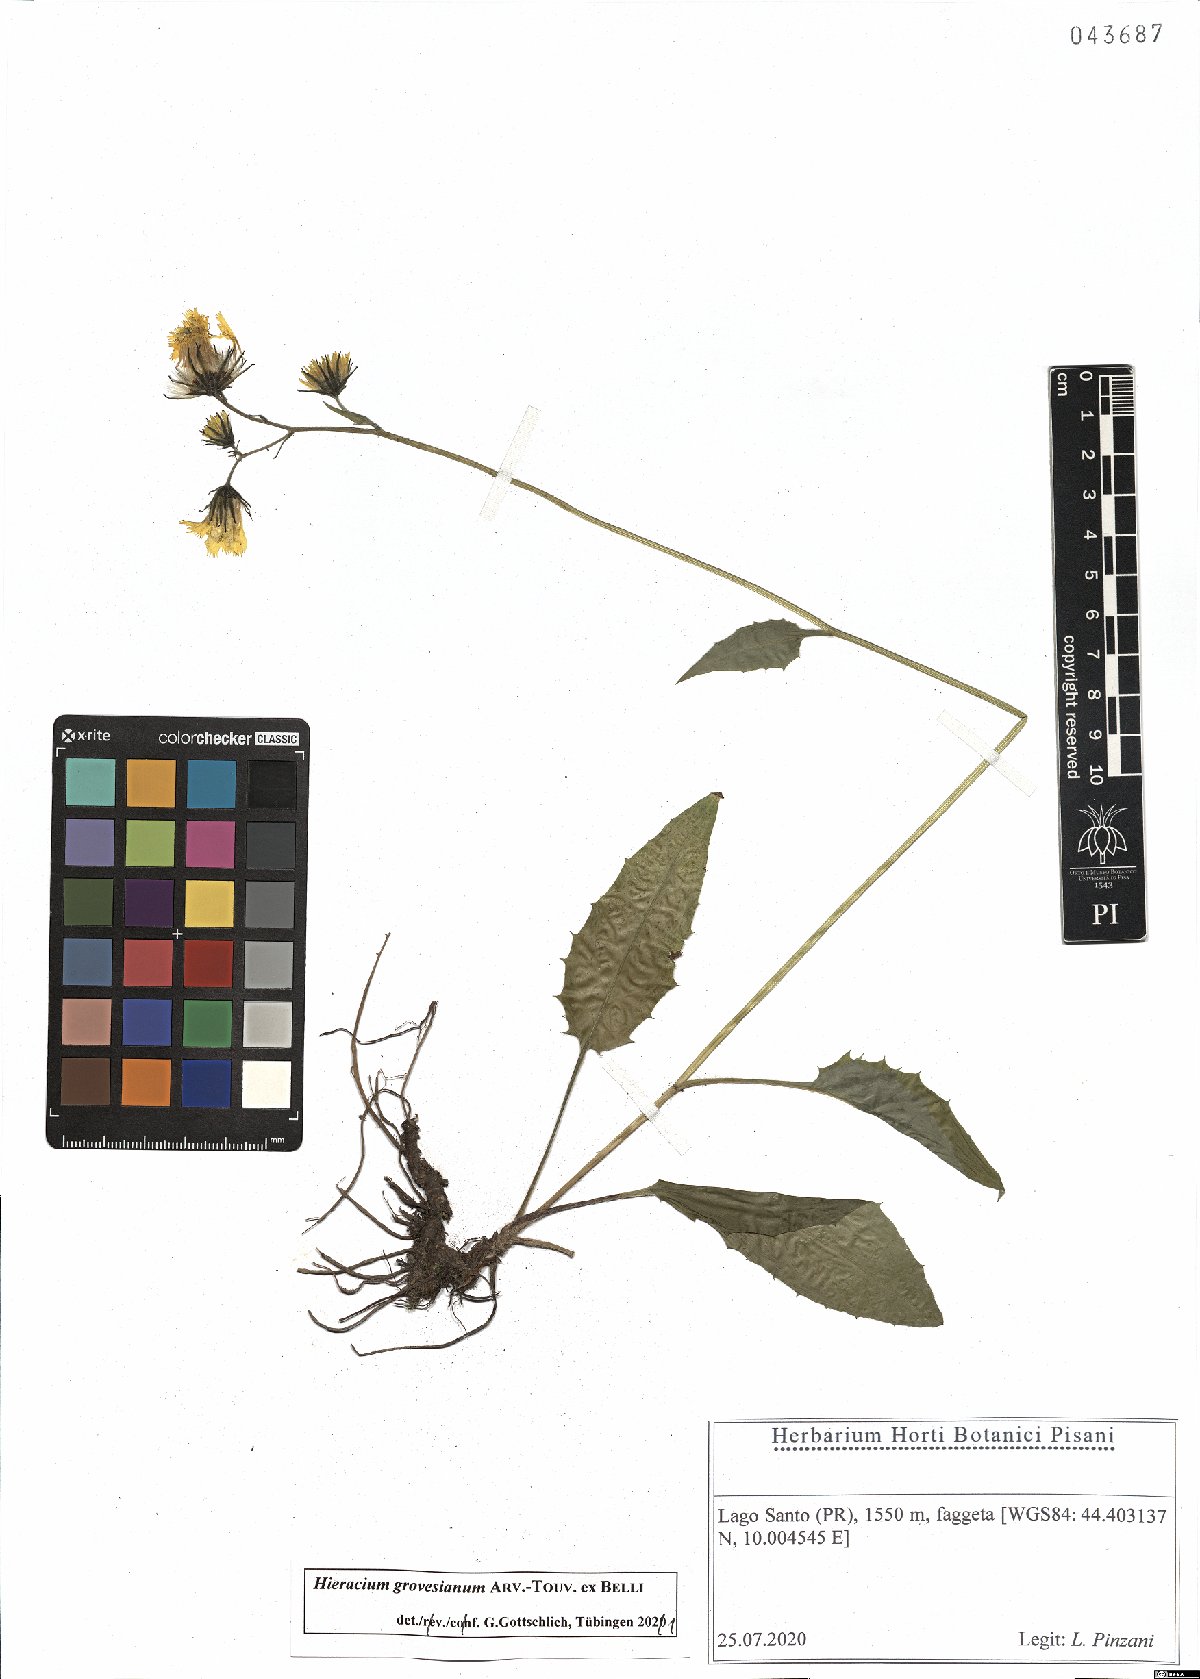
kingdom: Plantae
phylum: Tracheophyta
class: Magnoliopsida
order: Asterales
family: Asteraceae
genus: Hieracium
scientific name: Hieracium grovesianum
